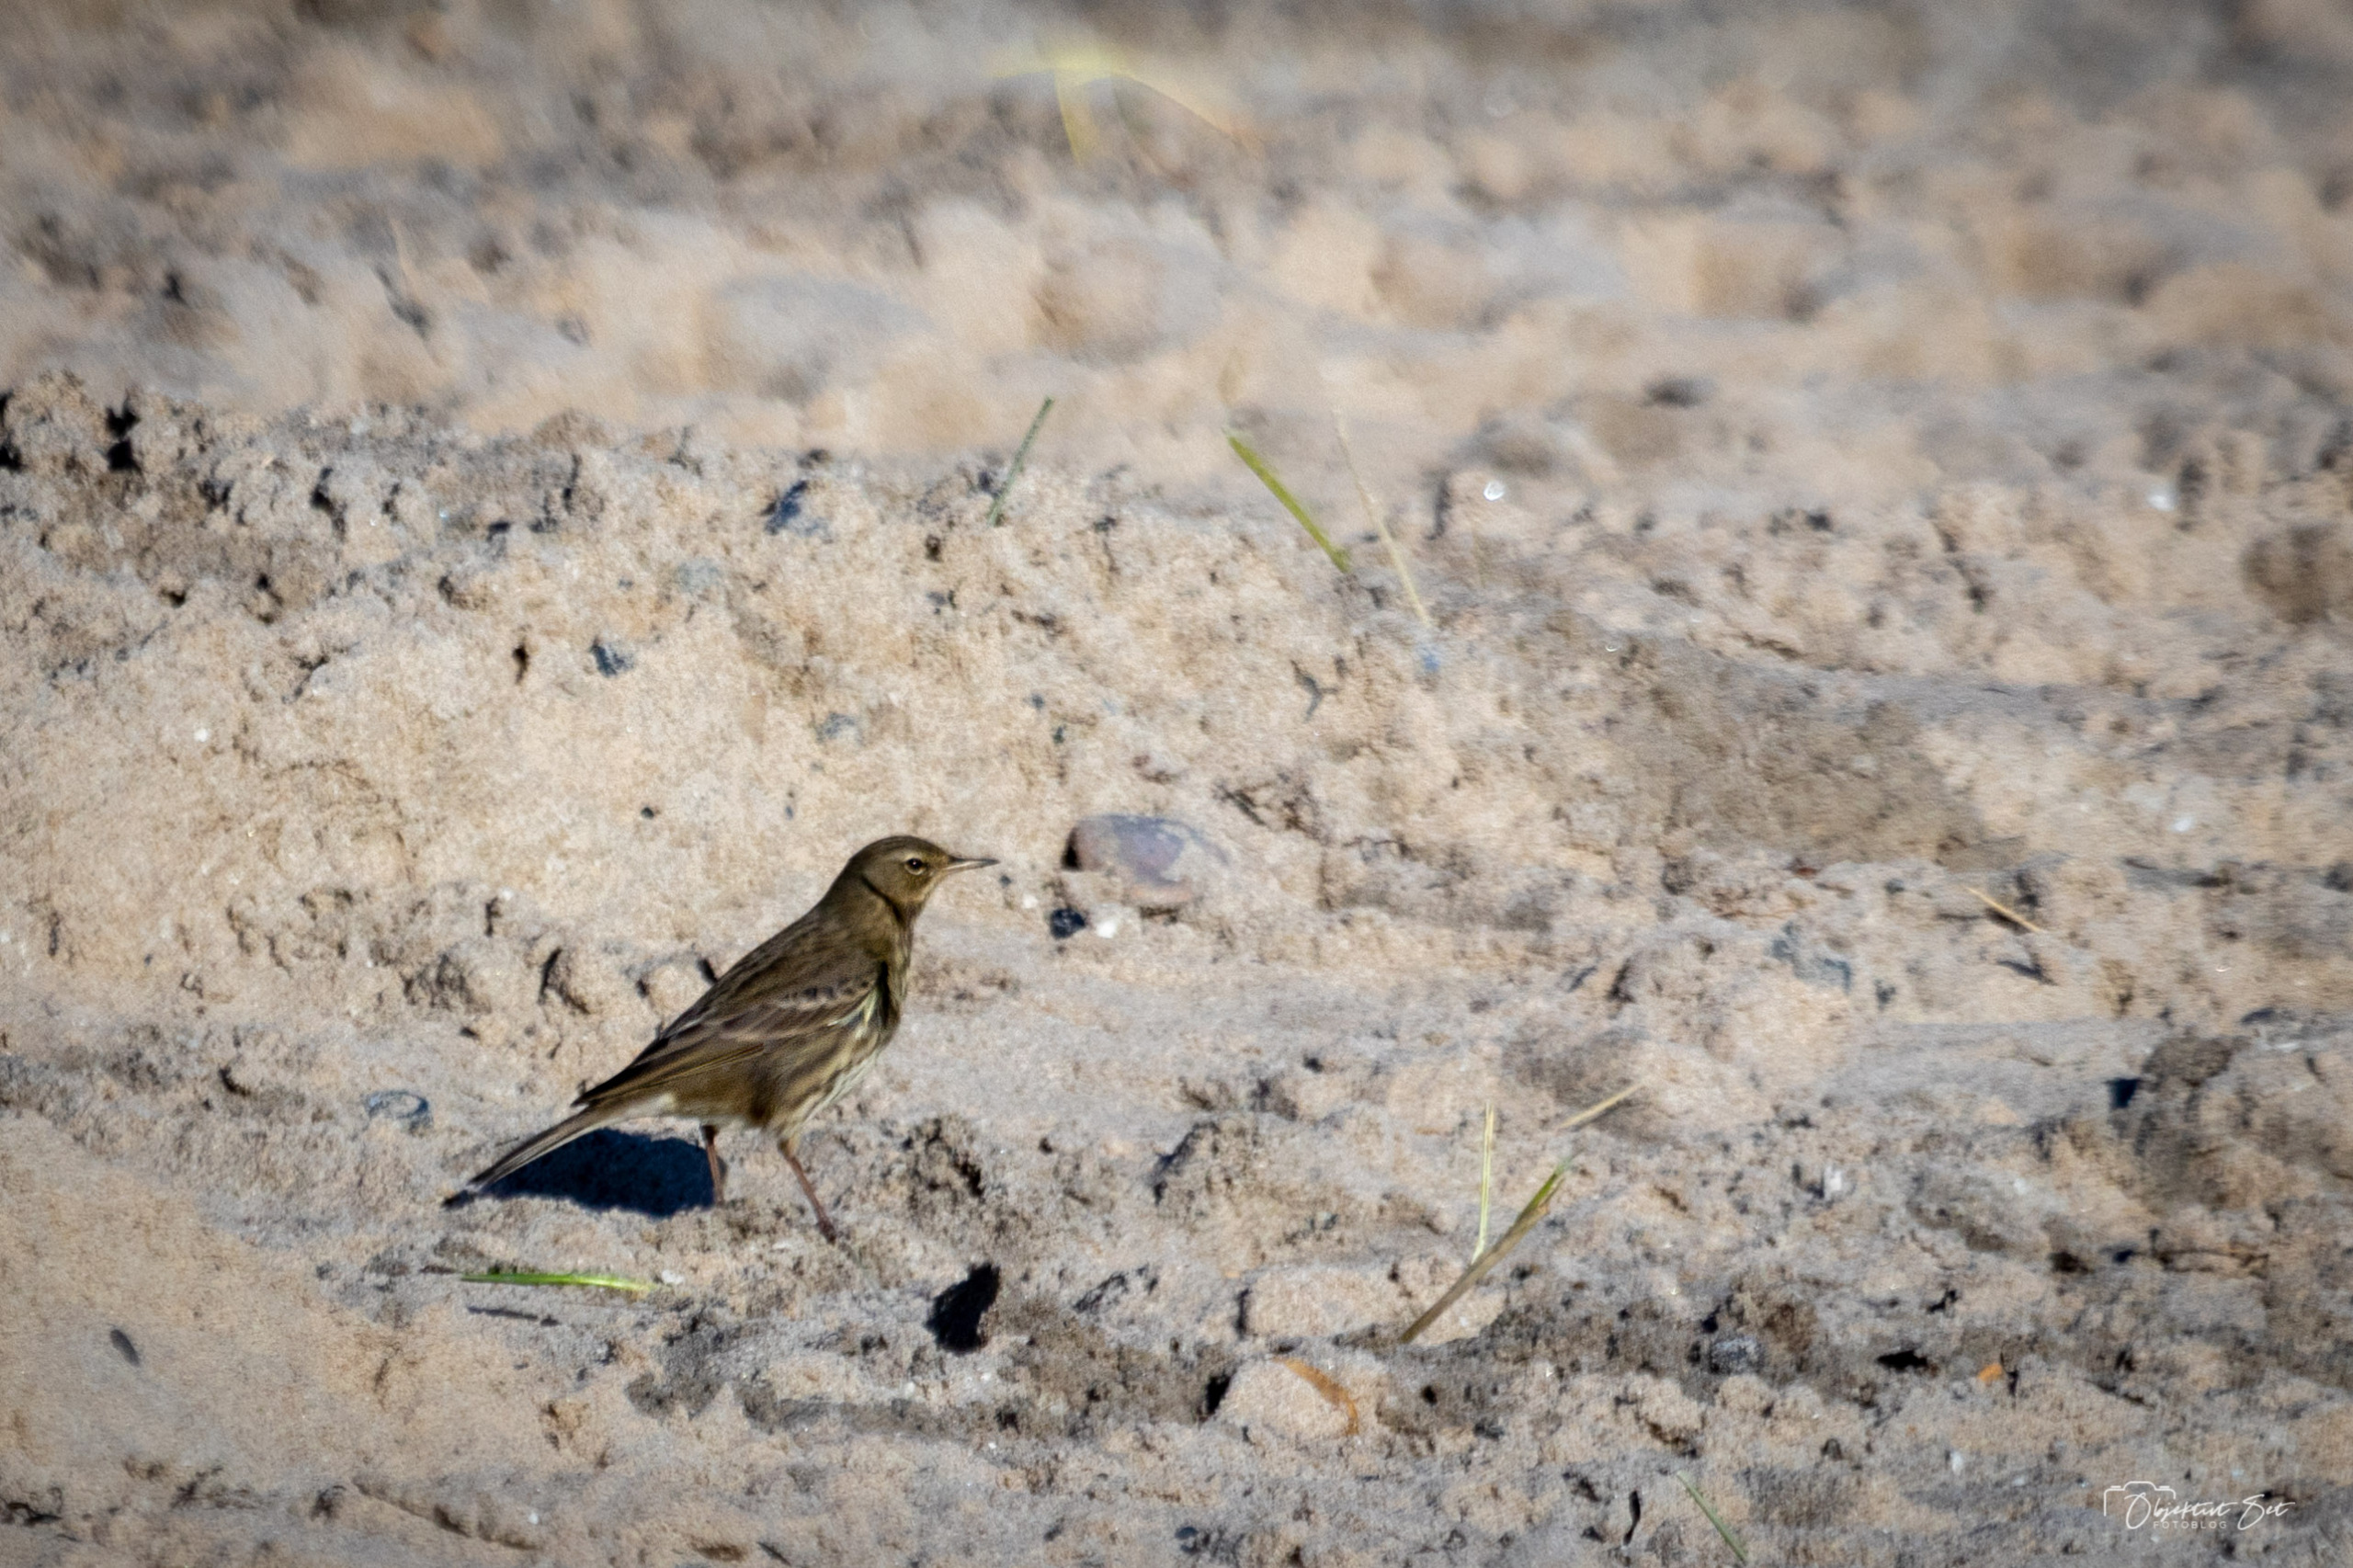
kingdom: Animalia
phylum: Chordata
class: Aves
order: Passeriformes
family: Motacillidae
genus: Anthus
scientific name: Anthus petrosus
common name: Skærpiber
